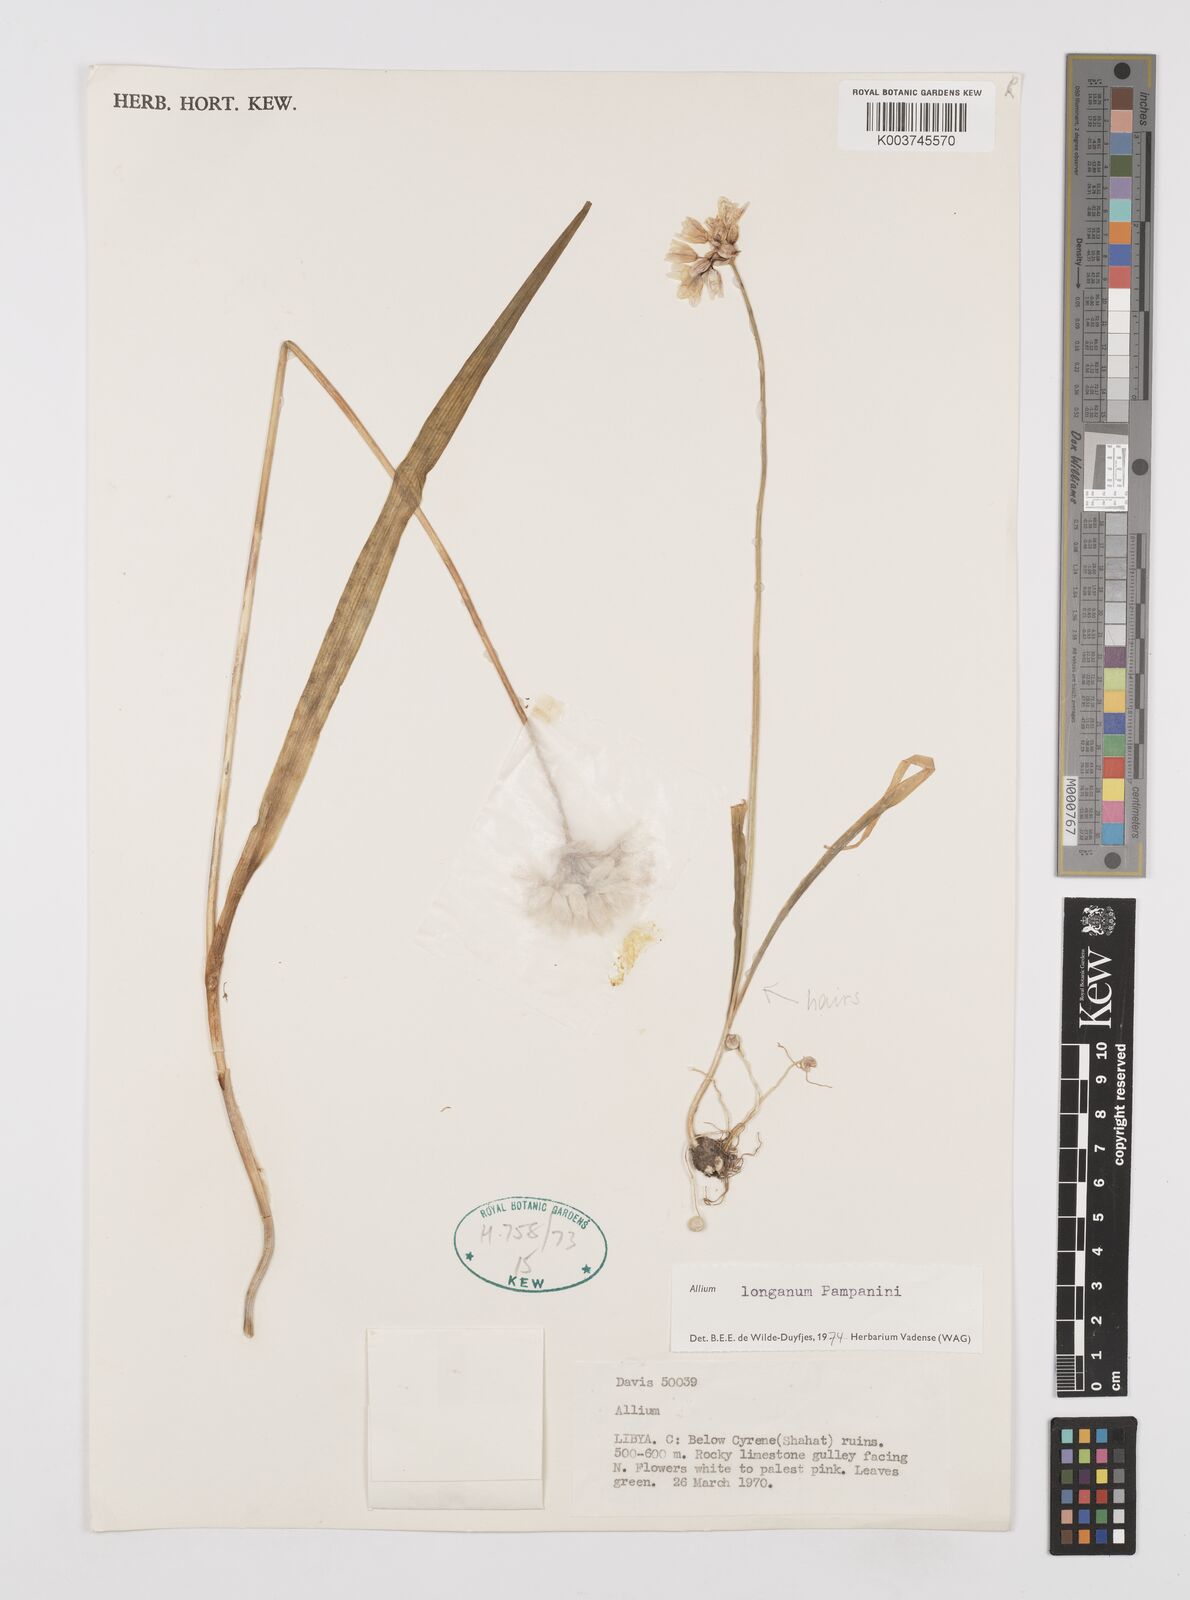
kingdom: Plantae
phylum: Tracheophyta
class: Liliopsida
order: Asparagales
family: Amaryllidaceae
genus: Allium
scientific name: Allium longanum
